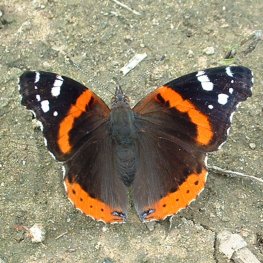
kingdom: Animalia
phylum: Arthropoda
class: Insecta
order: Lepidoptera
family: Nymphalidae
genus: Vanessa
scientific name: Vanessa atalanta
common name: Red Admiral
